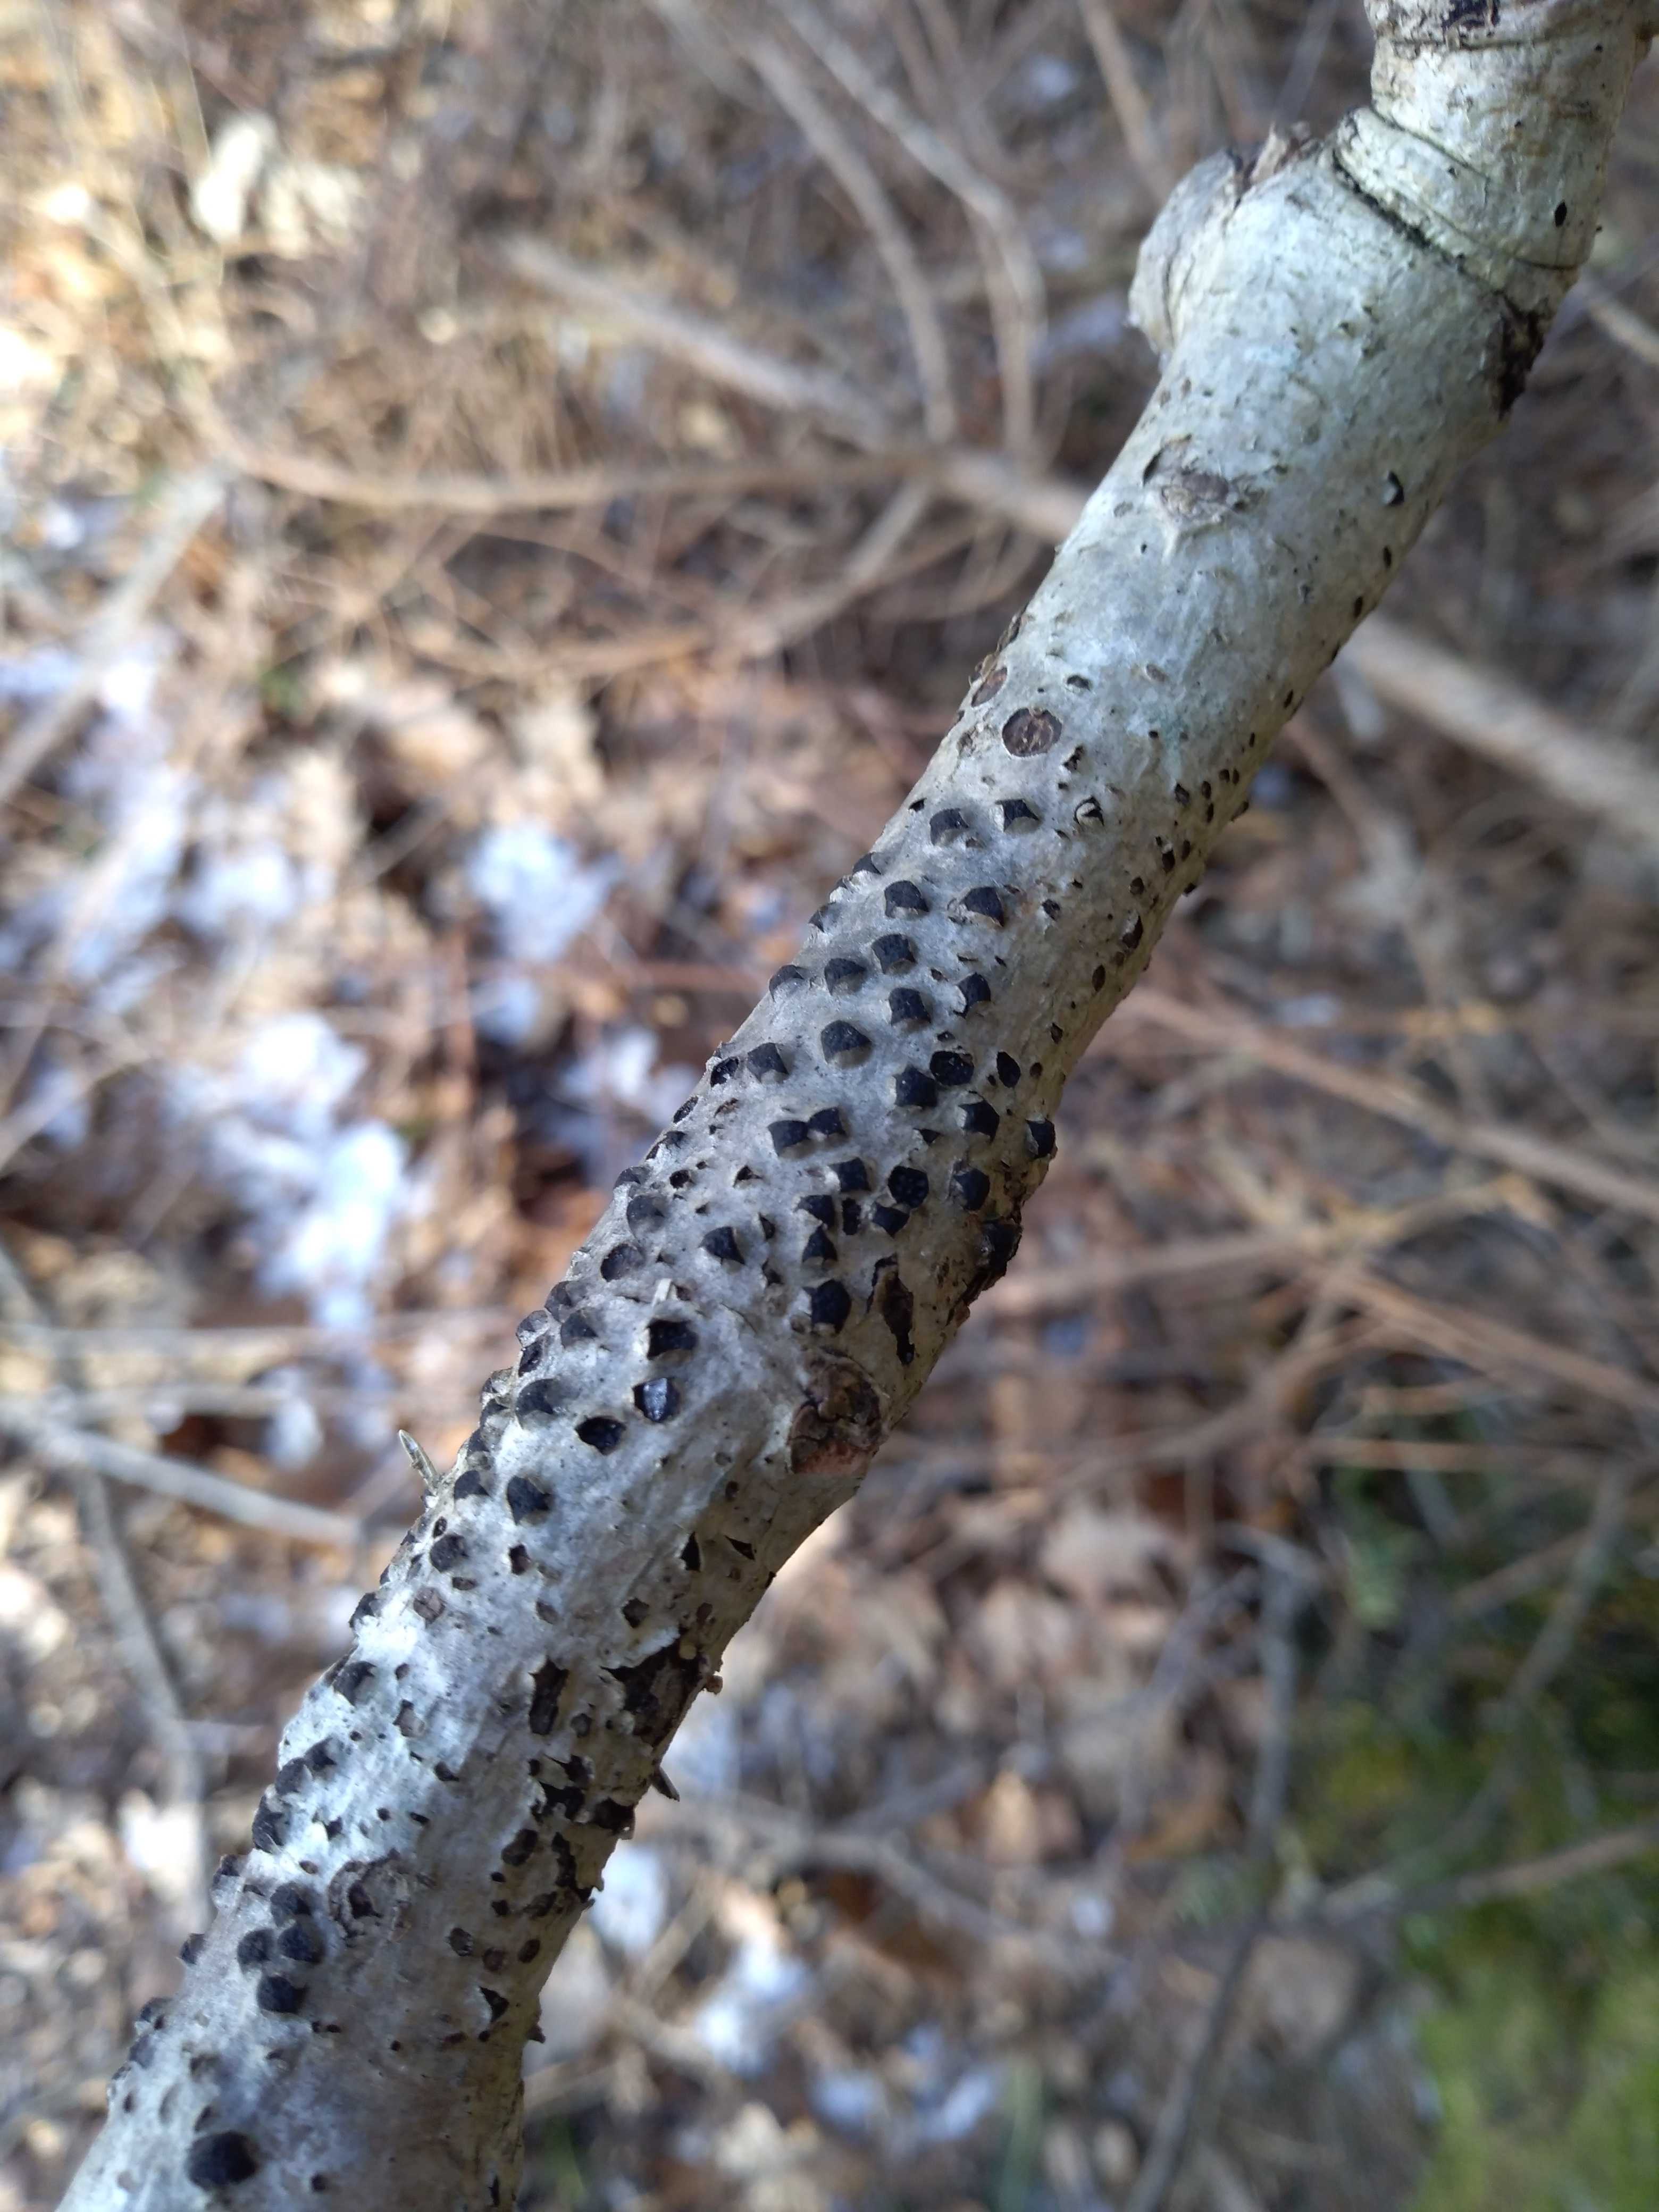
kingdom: Fungi
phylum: Ascomycota
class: Sordariomycetes
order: Xylariales
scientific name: Xylariales
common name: stødsvampordenen
